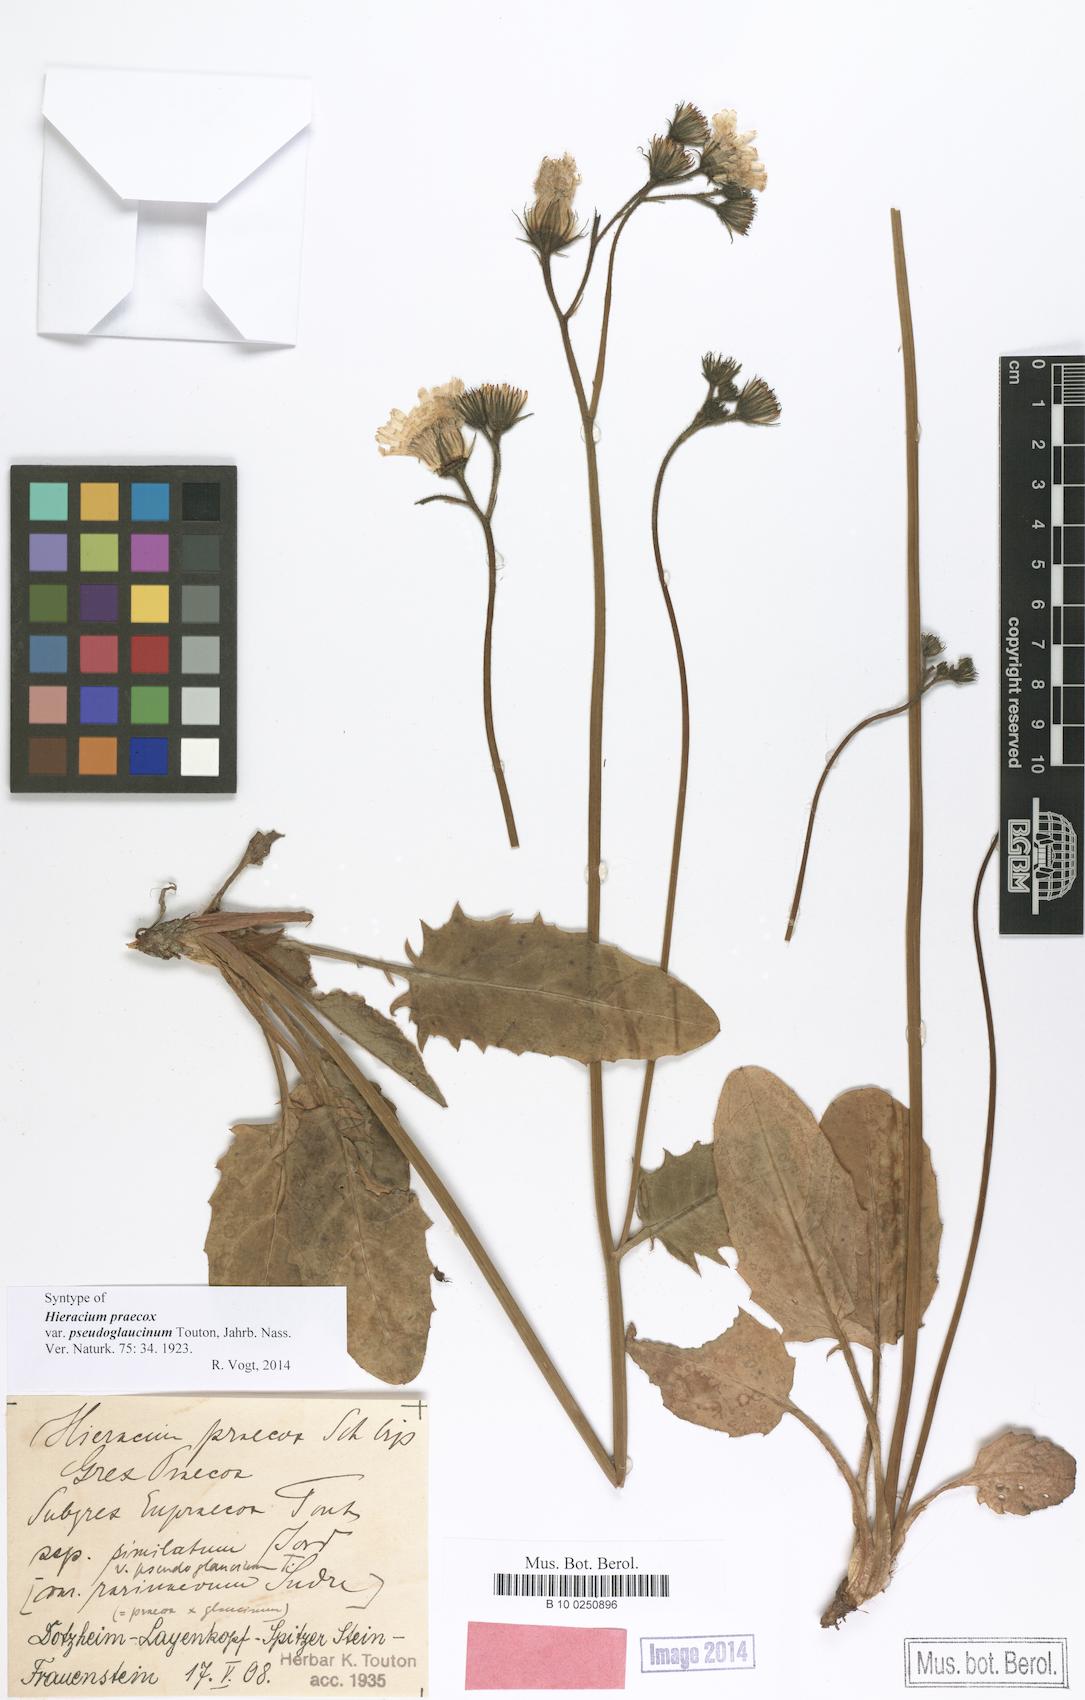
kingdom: Plantae
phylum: Tracheophyta
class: Magnoliopsida
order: Asterales
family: Asteraceae
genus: Hieracium
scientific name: Hieracium praecox
